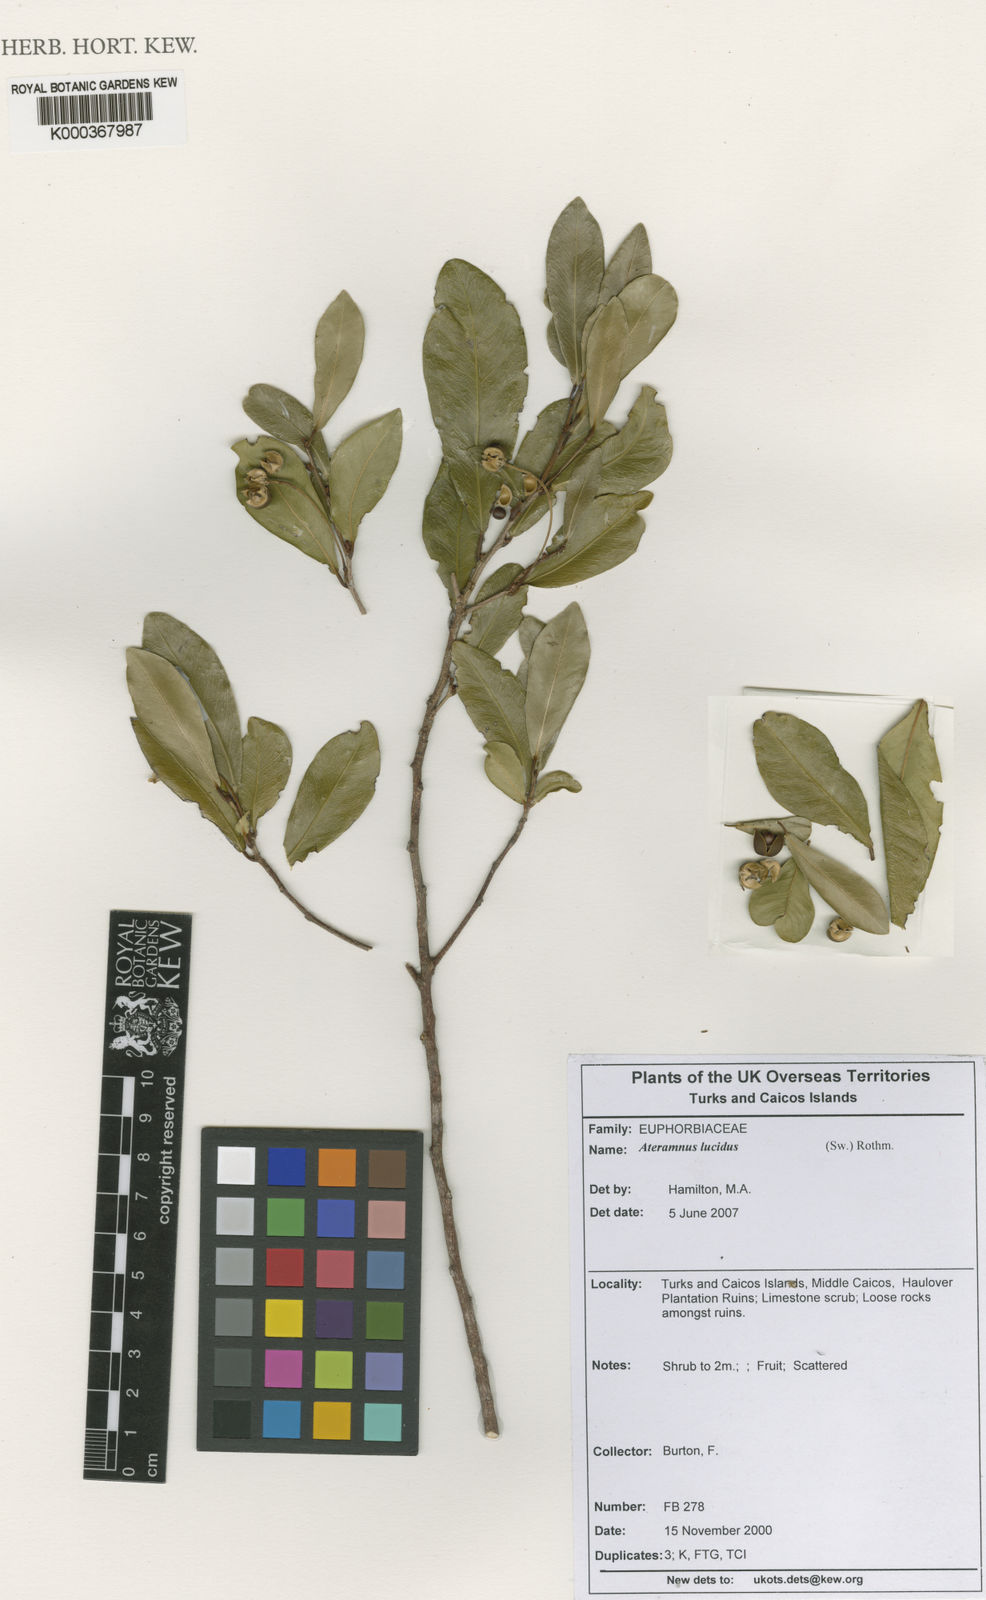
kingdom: Plantae
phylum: Tracheophyta
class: Magnoliopsida
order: Malpighiales
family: Euphorbiaceae
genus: Gymnanthes
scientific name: Gymnanthes lucida
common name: Oysterwood
